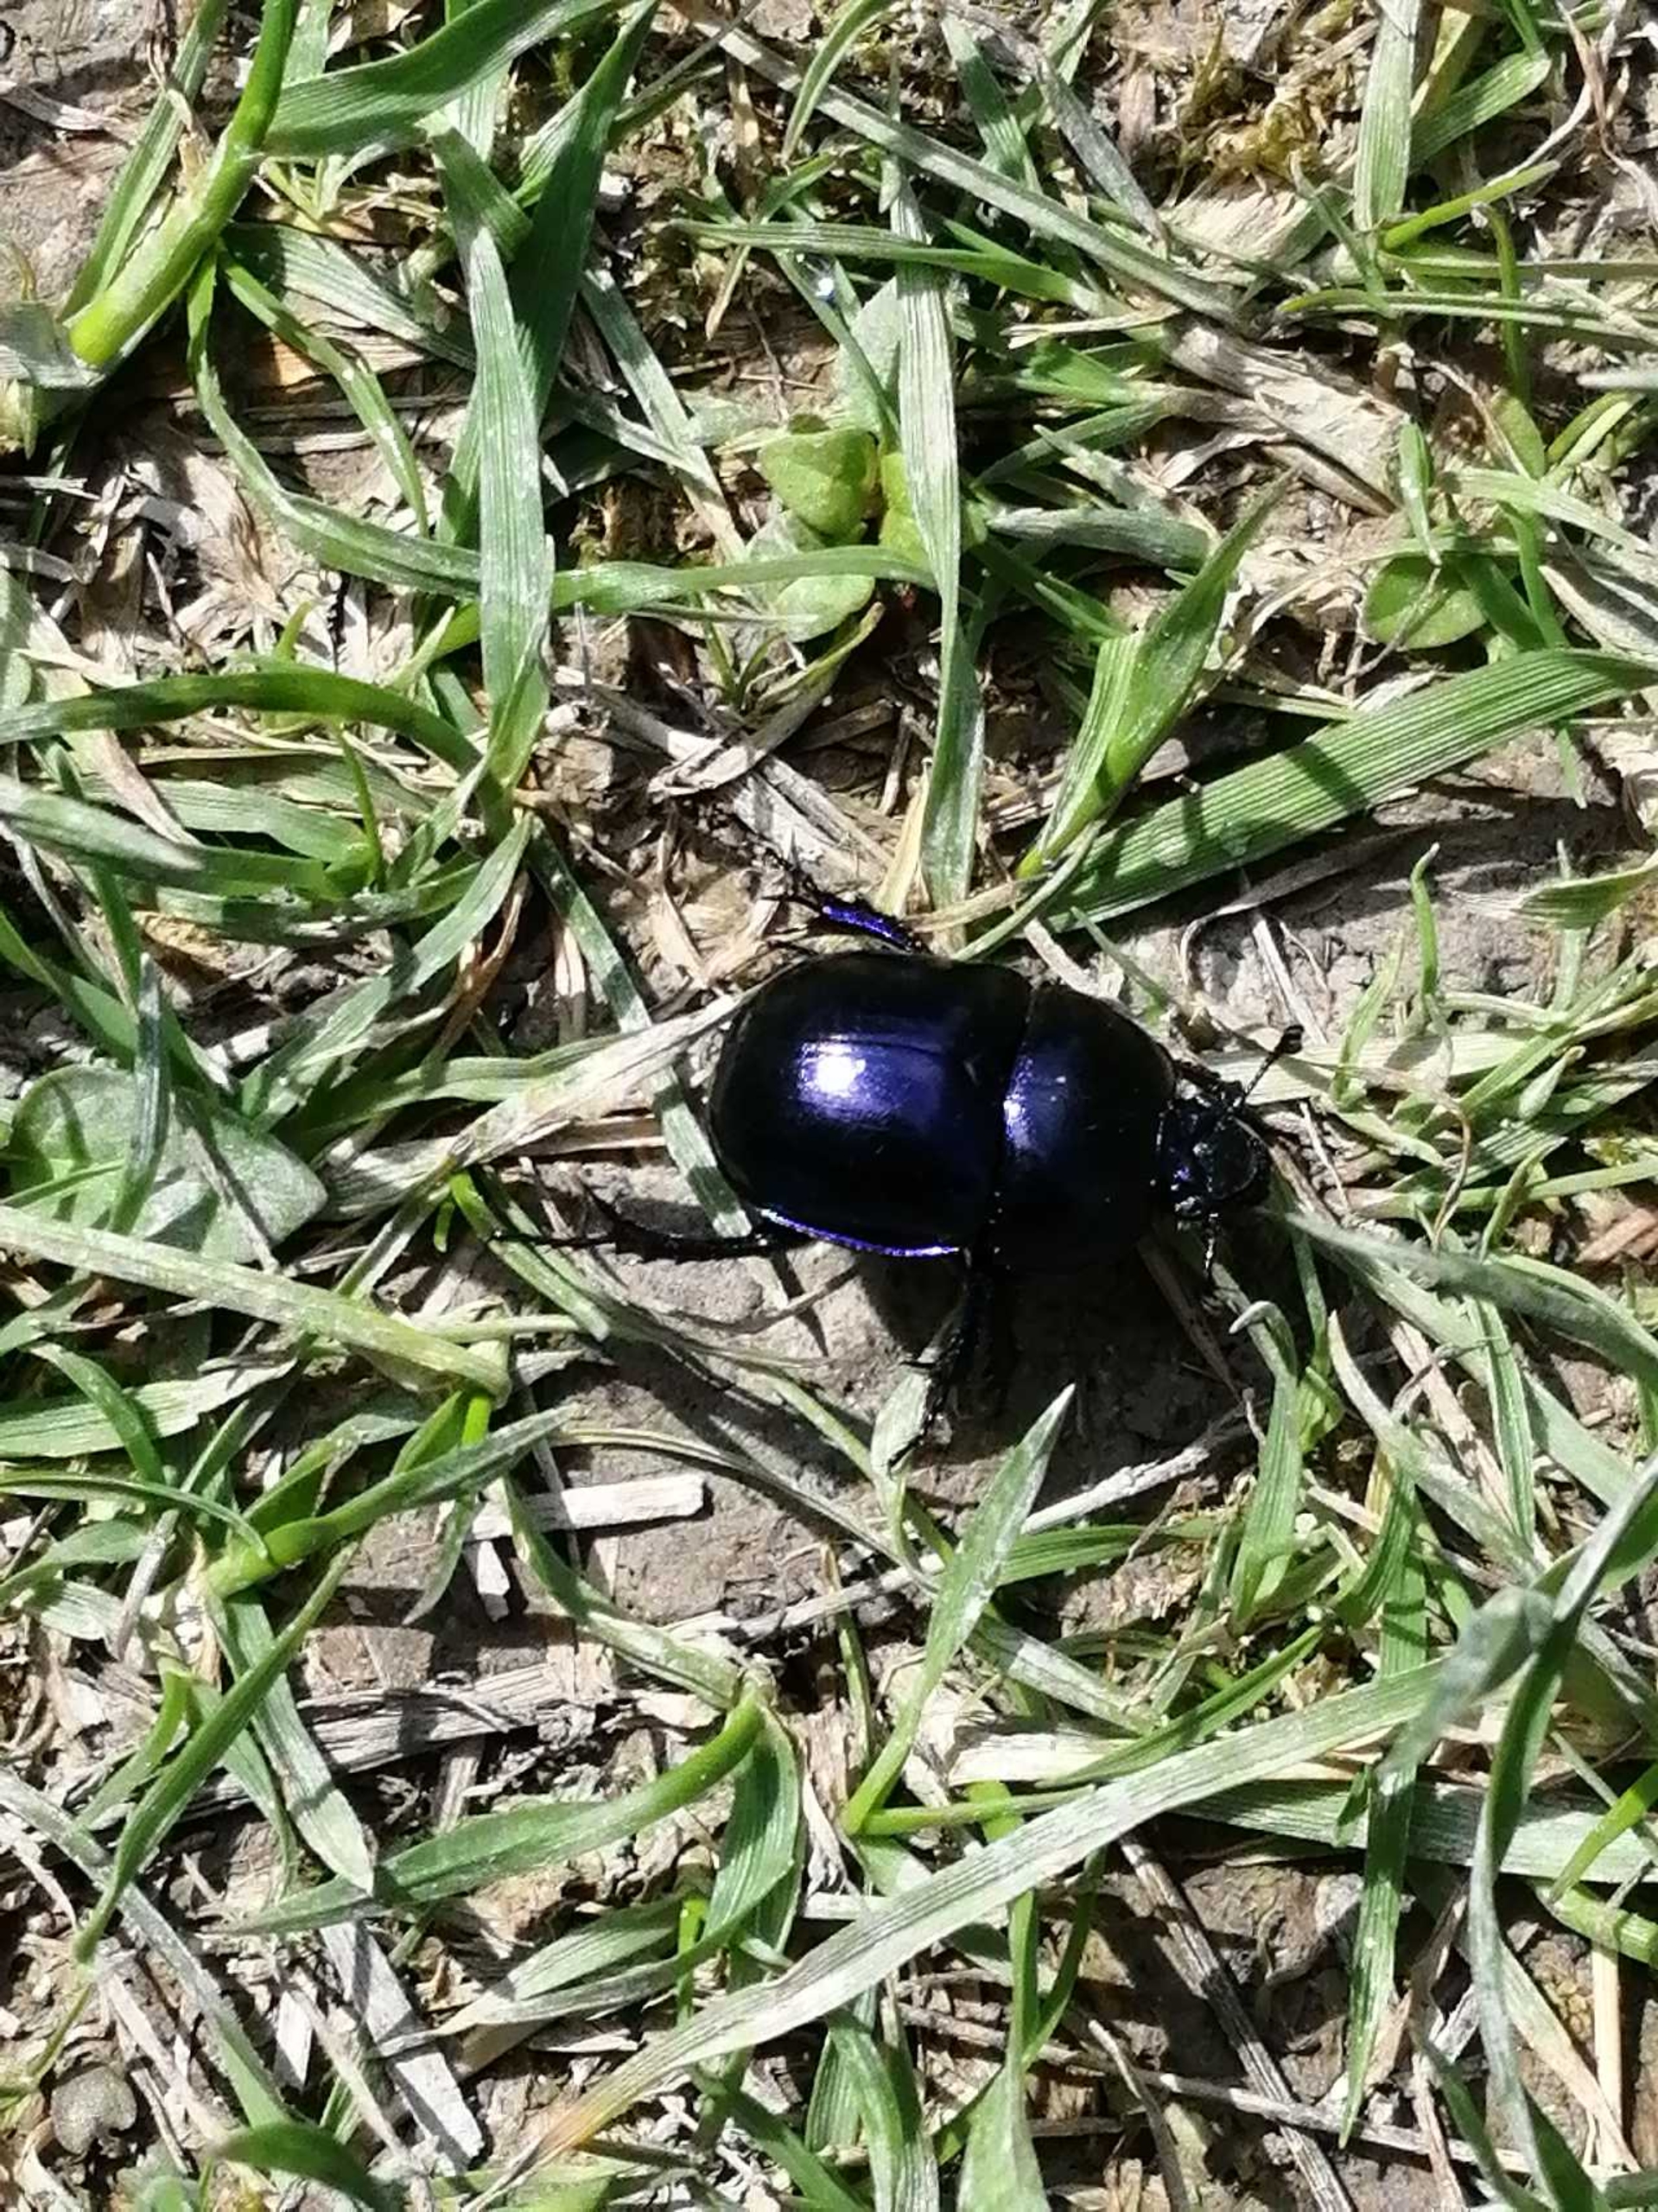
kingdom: Animalia
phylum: Arthropoda
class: Insecta
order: Coleoptera
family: Geotrupidae
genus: Trypocopris
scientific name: Trypocopris vernalis
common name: Glat skarnbasse
